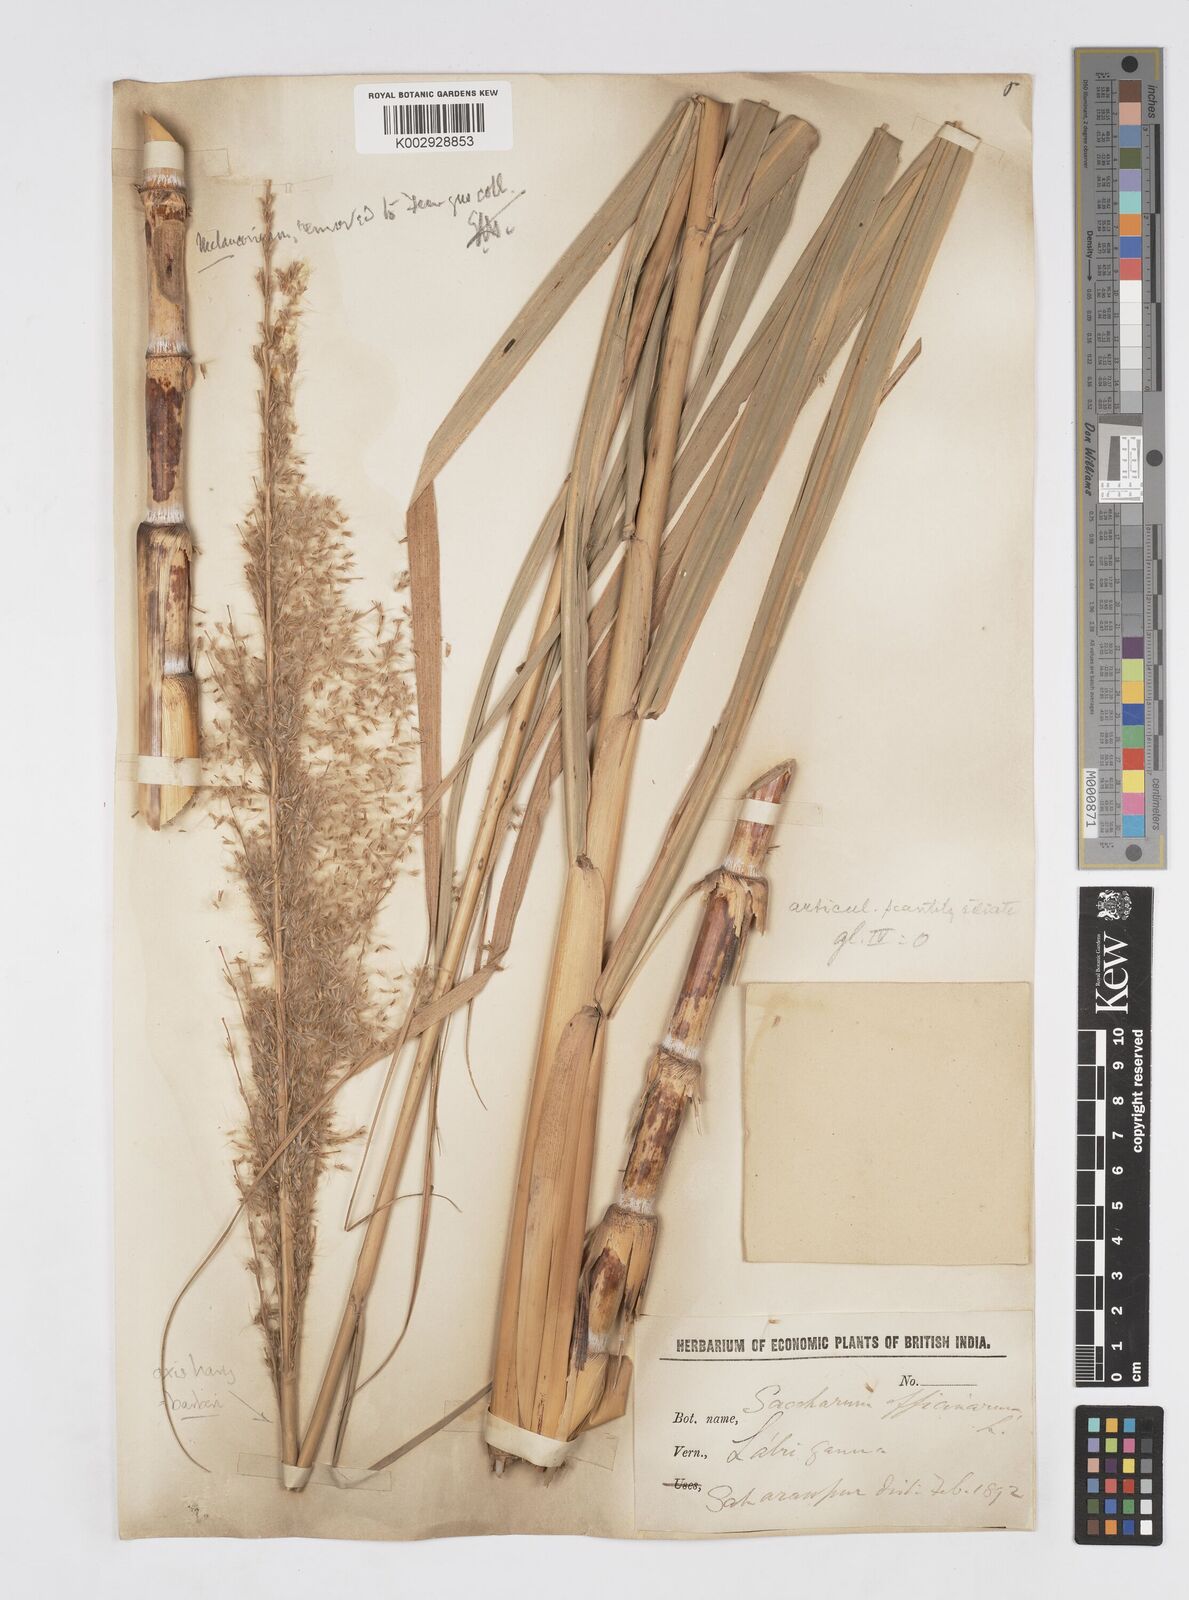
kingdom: Plantae
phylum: Tracheophyta
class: Liliopsida
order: Poales
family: Poaceae
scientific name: Poaceae
